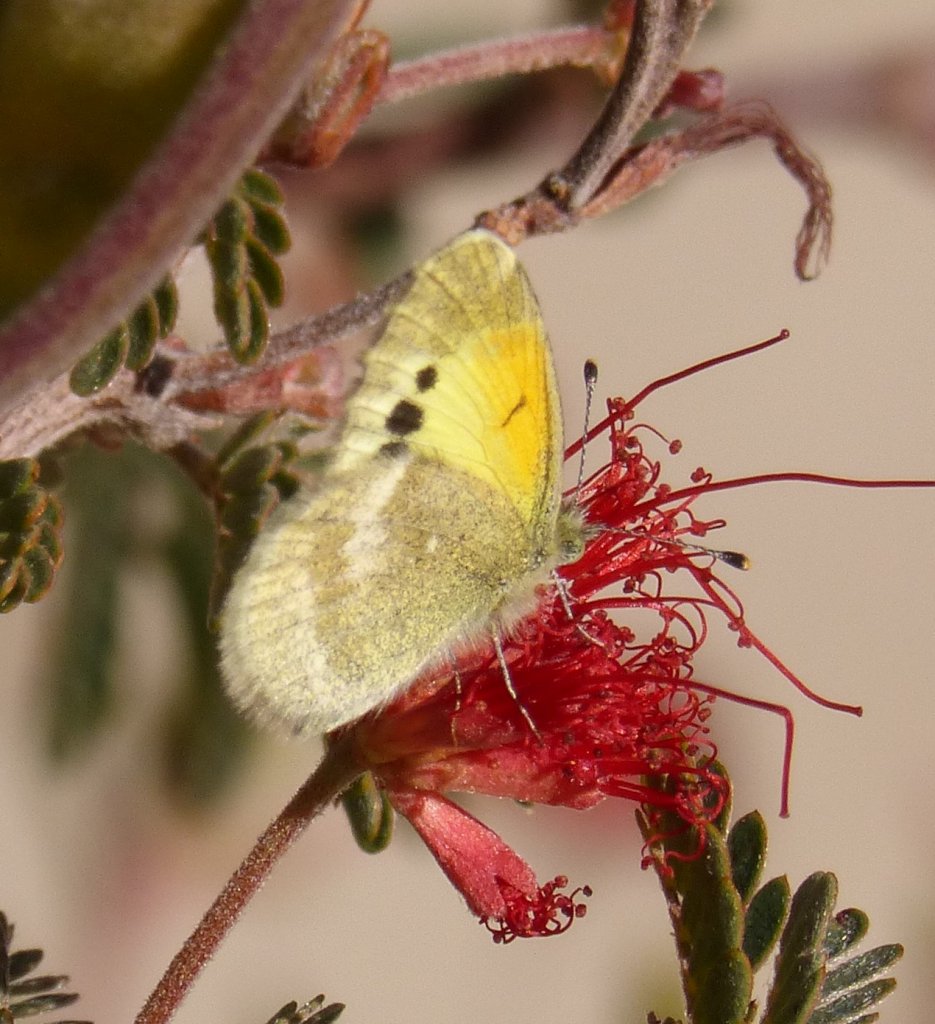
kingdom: Animalia
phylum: Arthropoda
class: Insecta
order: Lepidoptera
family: Pieridae
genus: Nathalis
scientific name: Nathalis iole
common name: Dainty Sulphur
